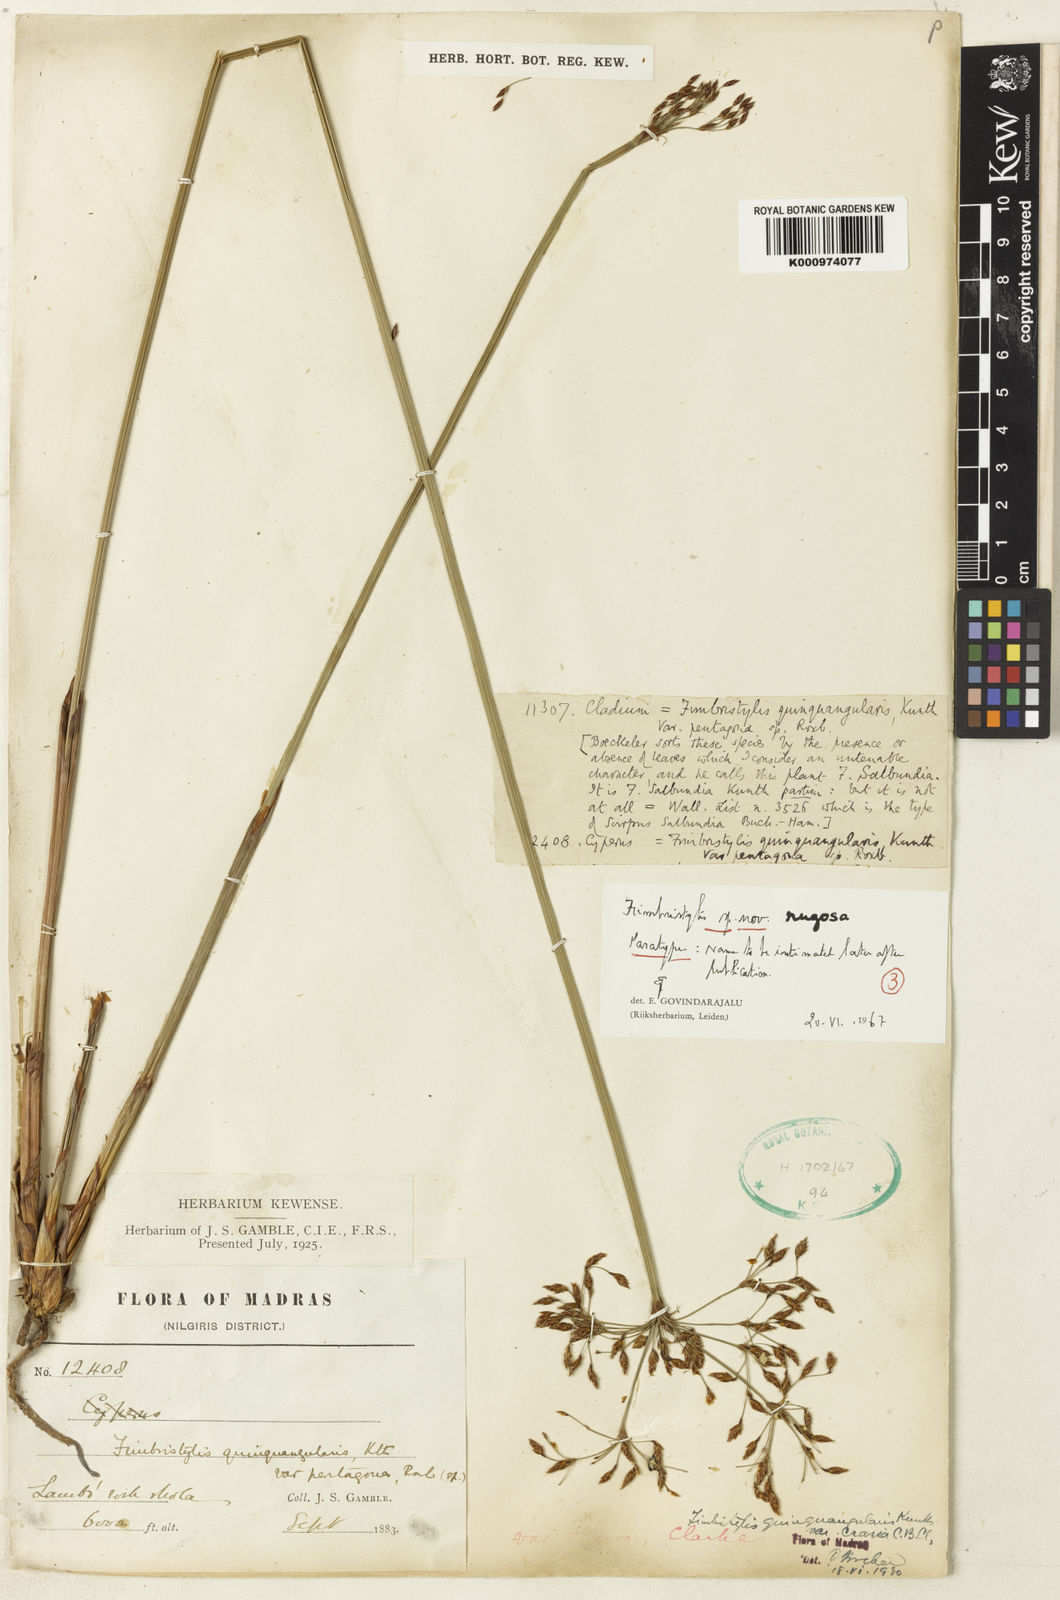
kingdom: Plantae
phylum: Tracheophyta
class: Liliopsida
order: Poales
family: Cyperaceae
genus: Fimbristylis
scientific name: Fimbristylis rugosa
